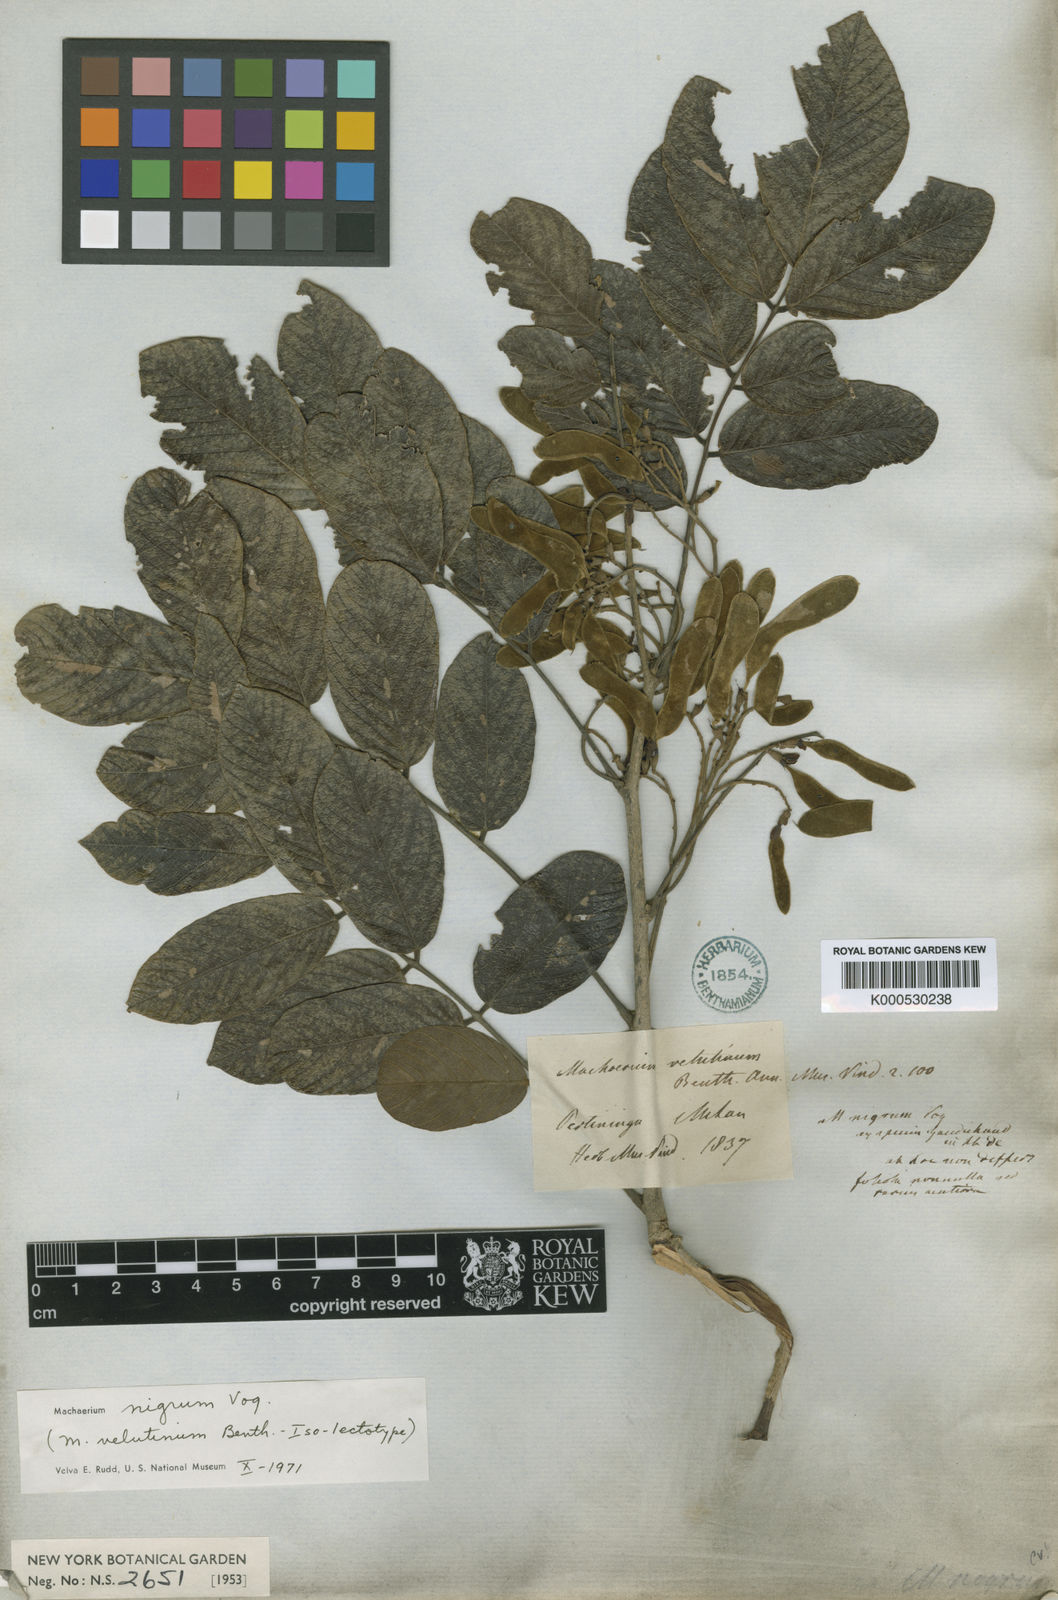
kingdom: Plantae
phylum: Tracheophyta
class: Magnoliopsida
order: Fabales
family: Fabaceae
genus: Machaerium
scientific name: Machaerium nigrum
